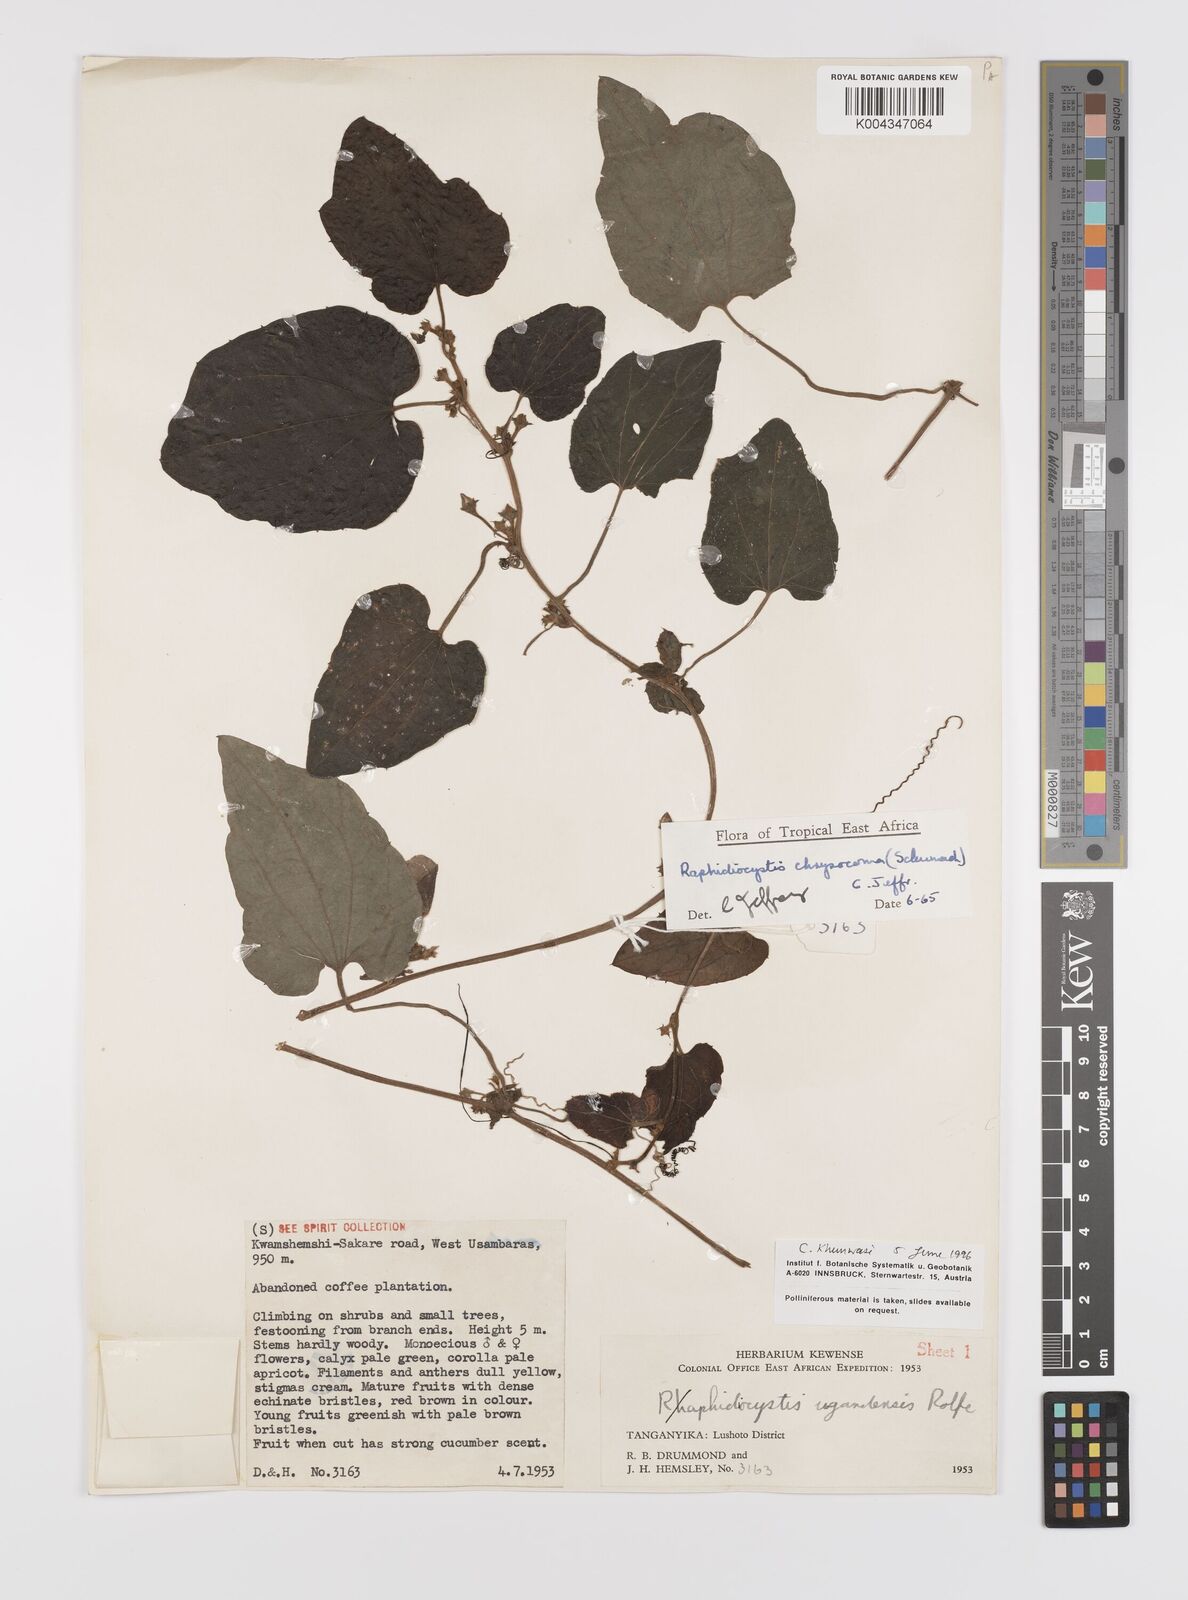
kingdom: Plantae
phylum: Tracheophyta
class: Magnoliopsida
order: Cucurbitales
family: Cucurbitaceae
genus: Raphidiocystis
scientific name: Raphidiocystis chrysocoma
